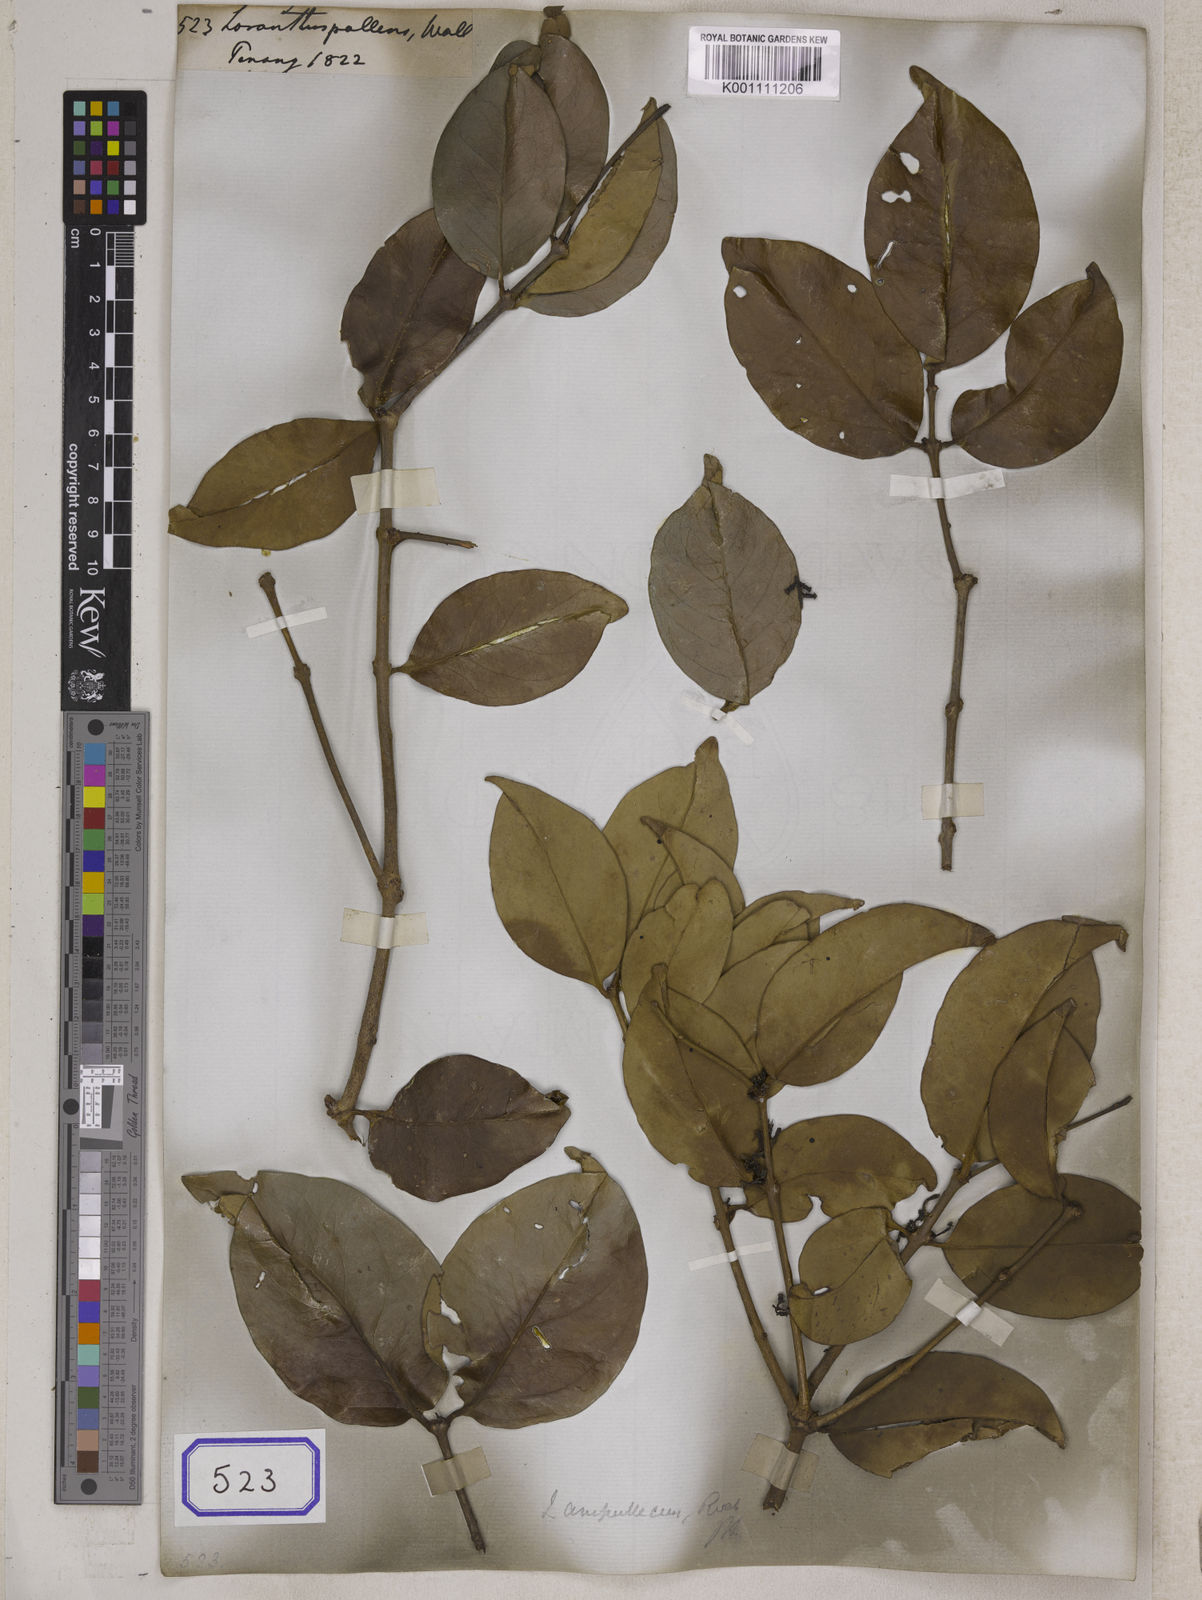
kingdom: Plantae
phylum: Tracheophyta
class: Magnoliopsida
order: Santalales
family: Loranthaceae
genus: Loranthus
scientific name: Loranthus
